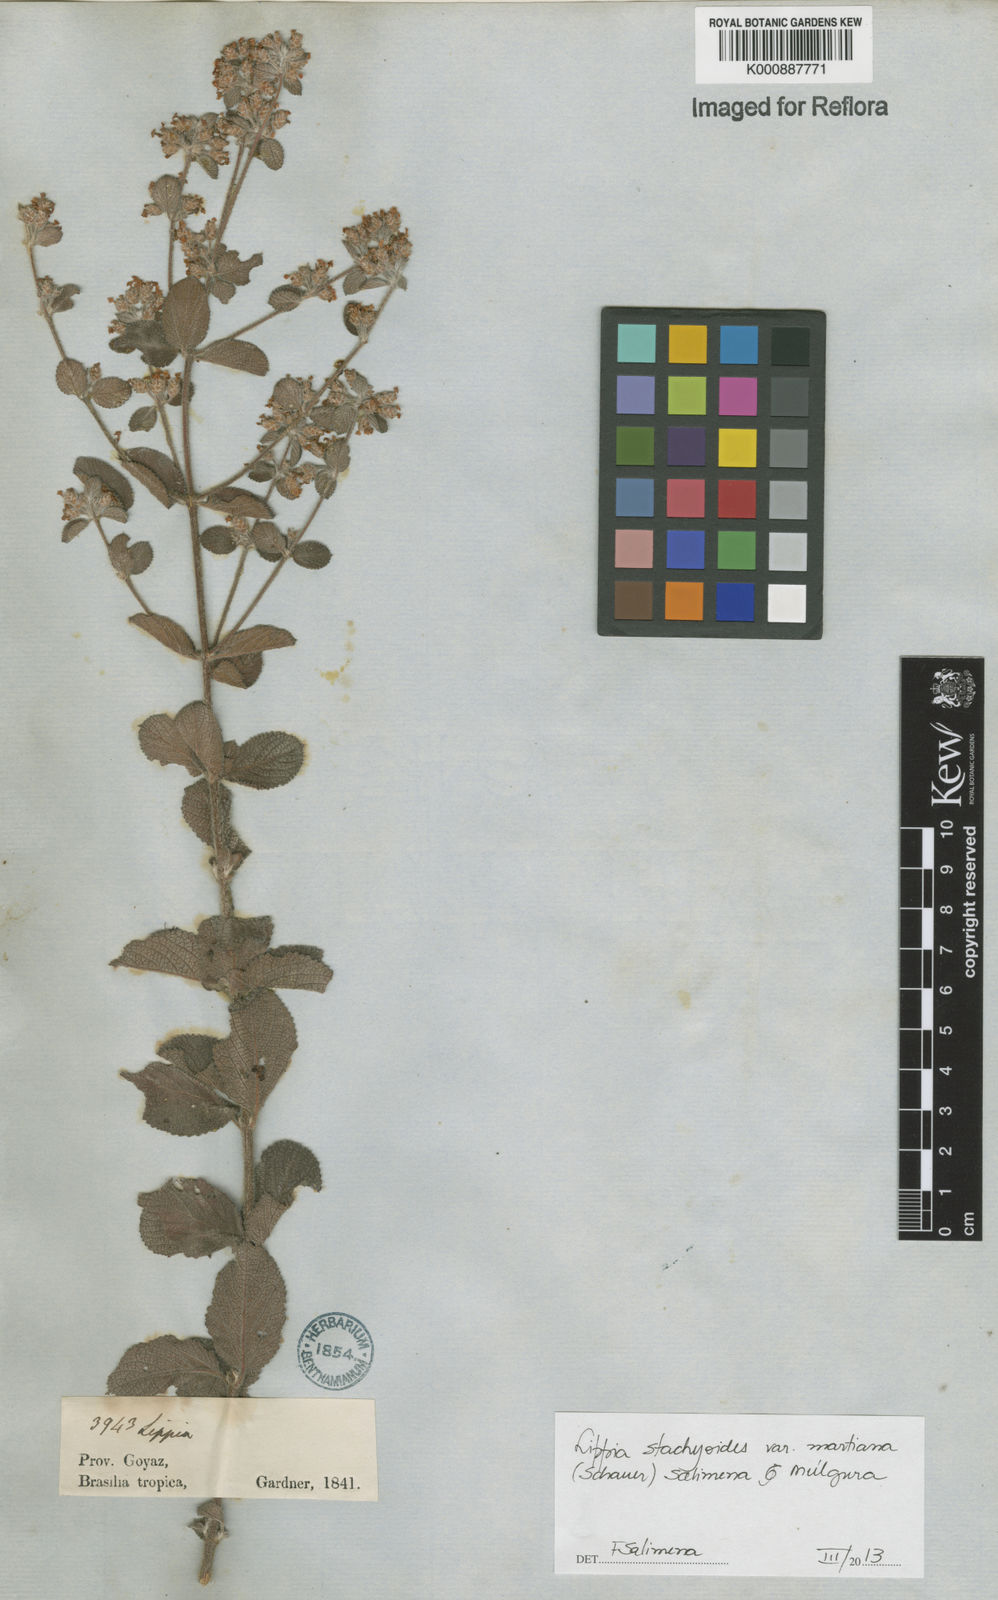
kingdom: Plantae
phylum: Tracheophyta
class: Magnoliopsida
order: Lamiales
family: Verbenaceae
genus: Lippia
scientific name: Lippia stachyoides
